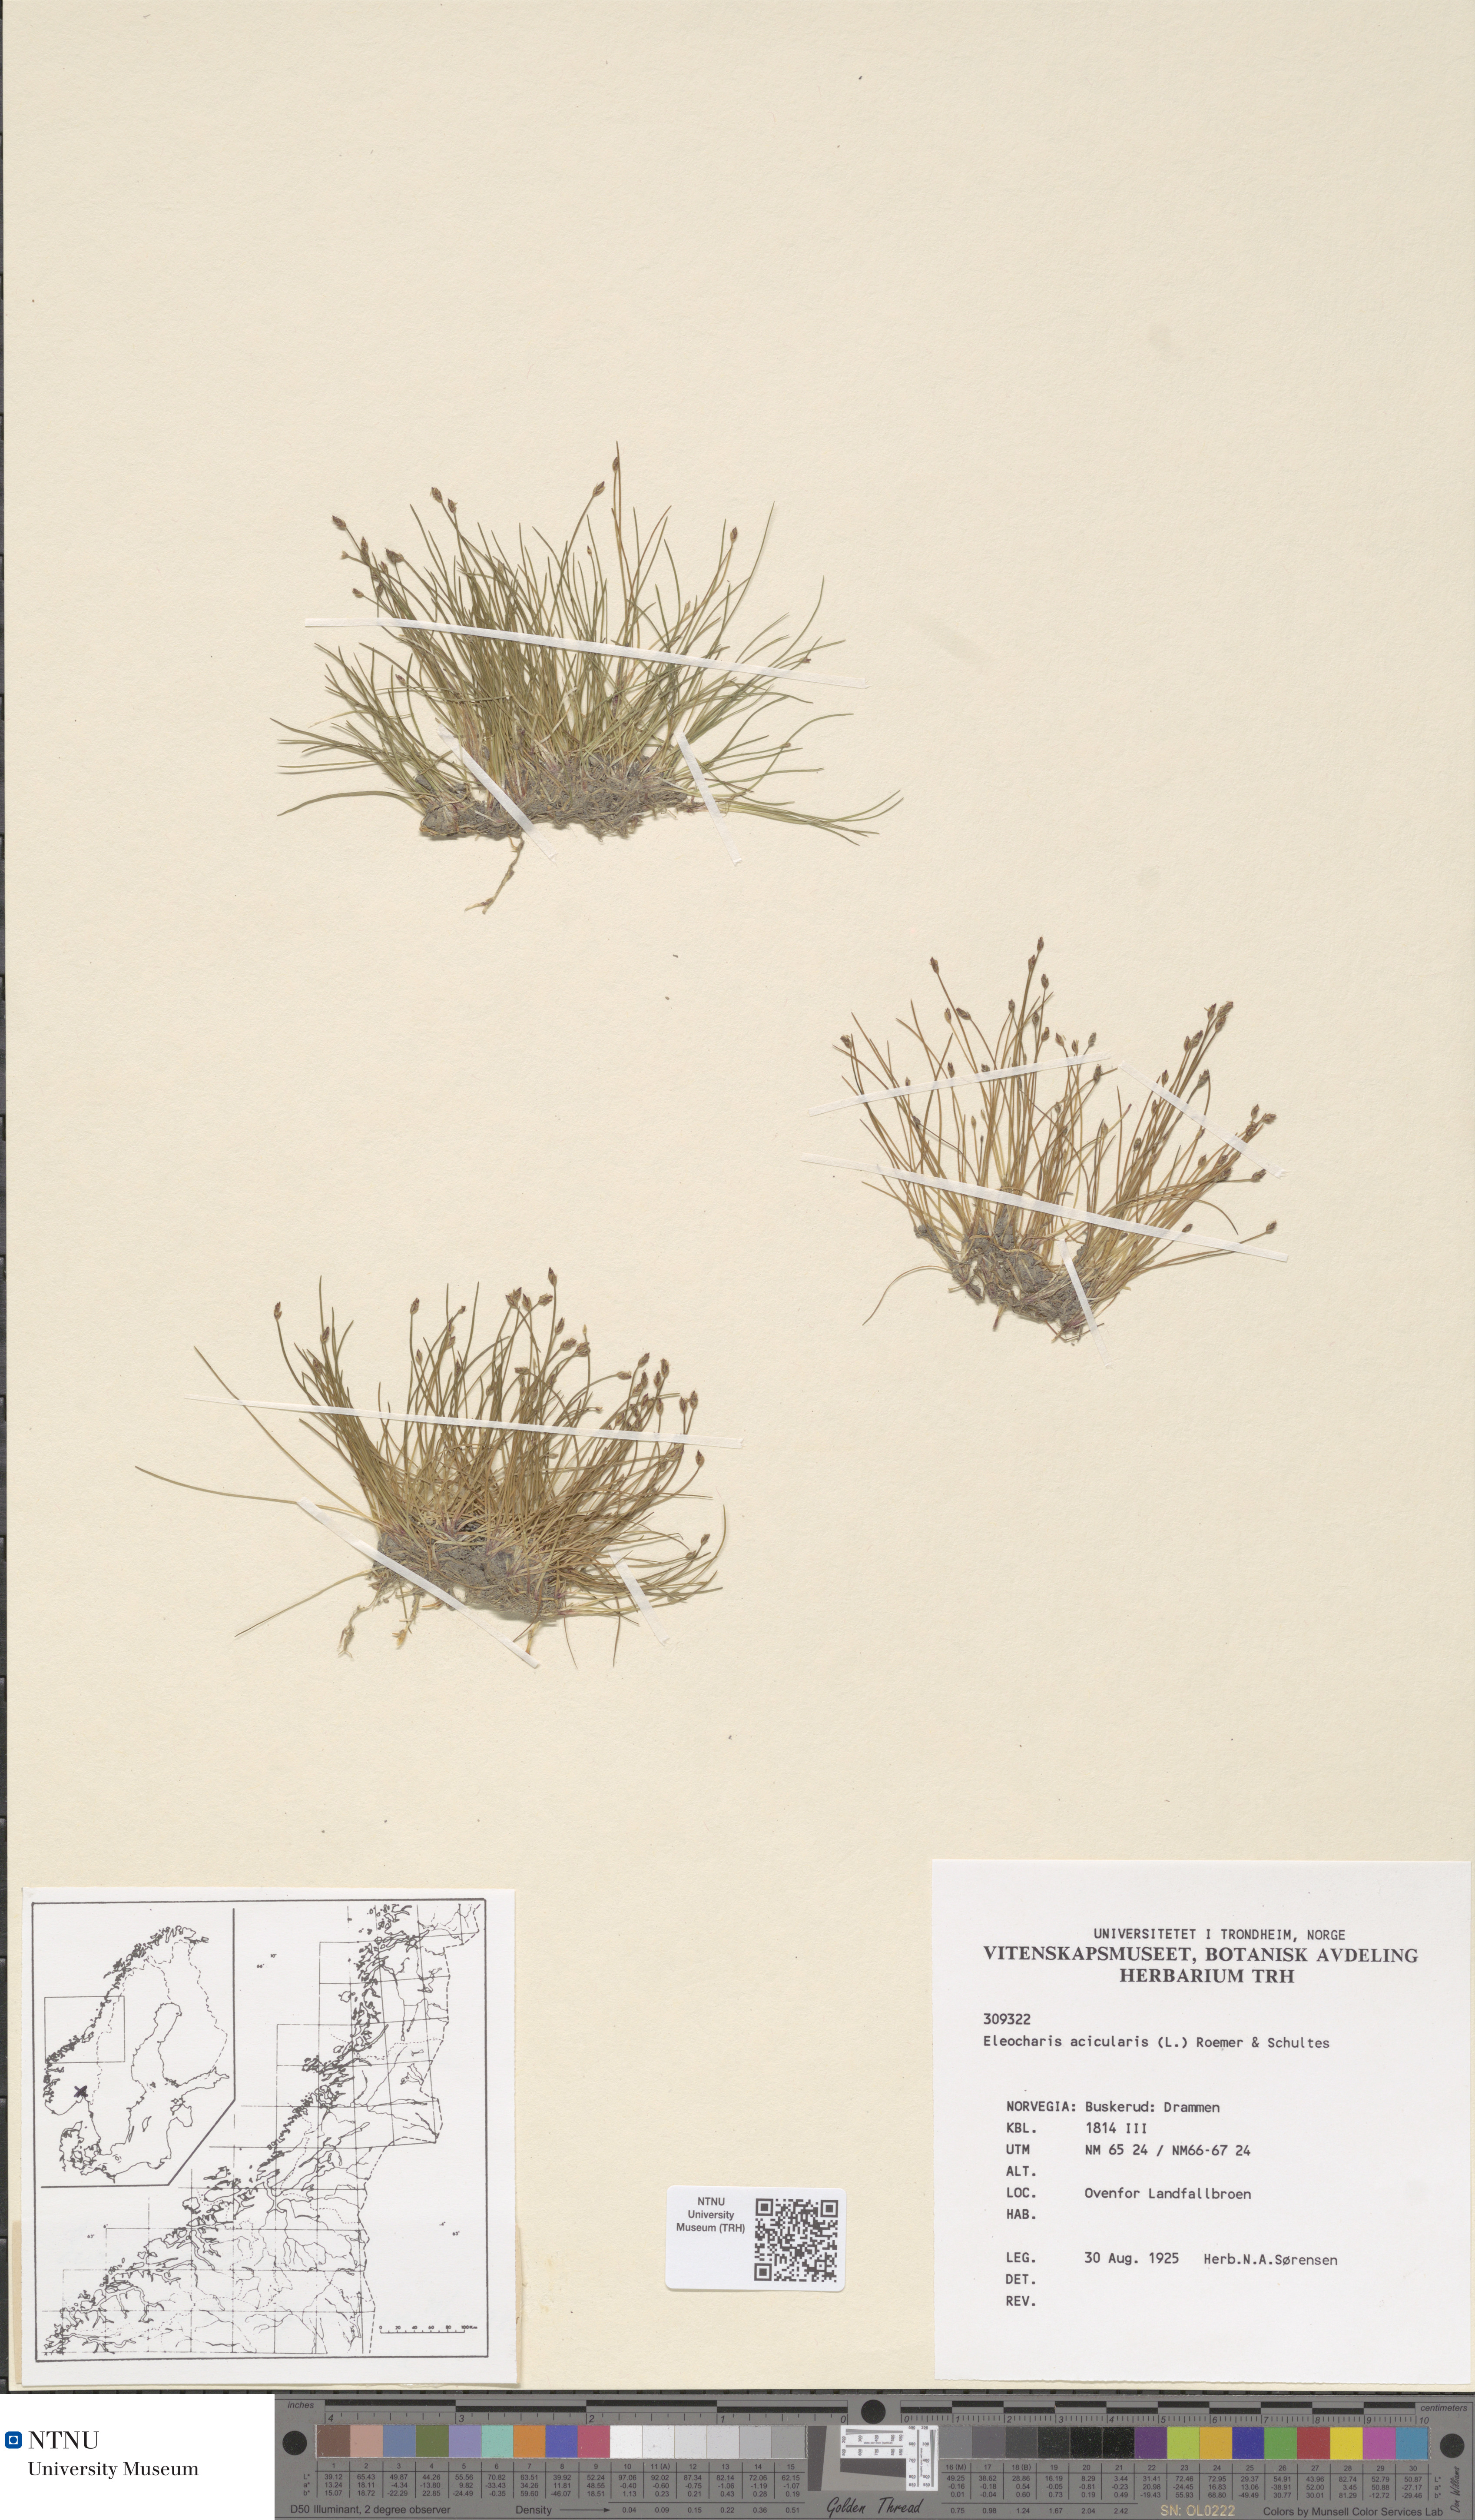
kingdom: Plantae
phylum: Tracheophyta
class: Liliopsida
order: Poales
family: Cyperaceae
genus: Eleocharis
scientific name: Eleocharis acicularis
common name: Needle spike-rush
